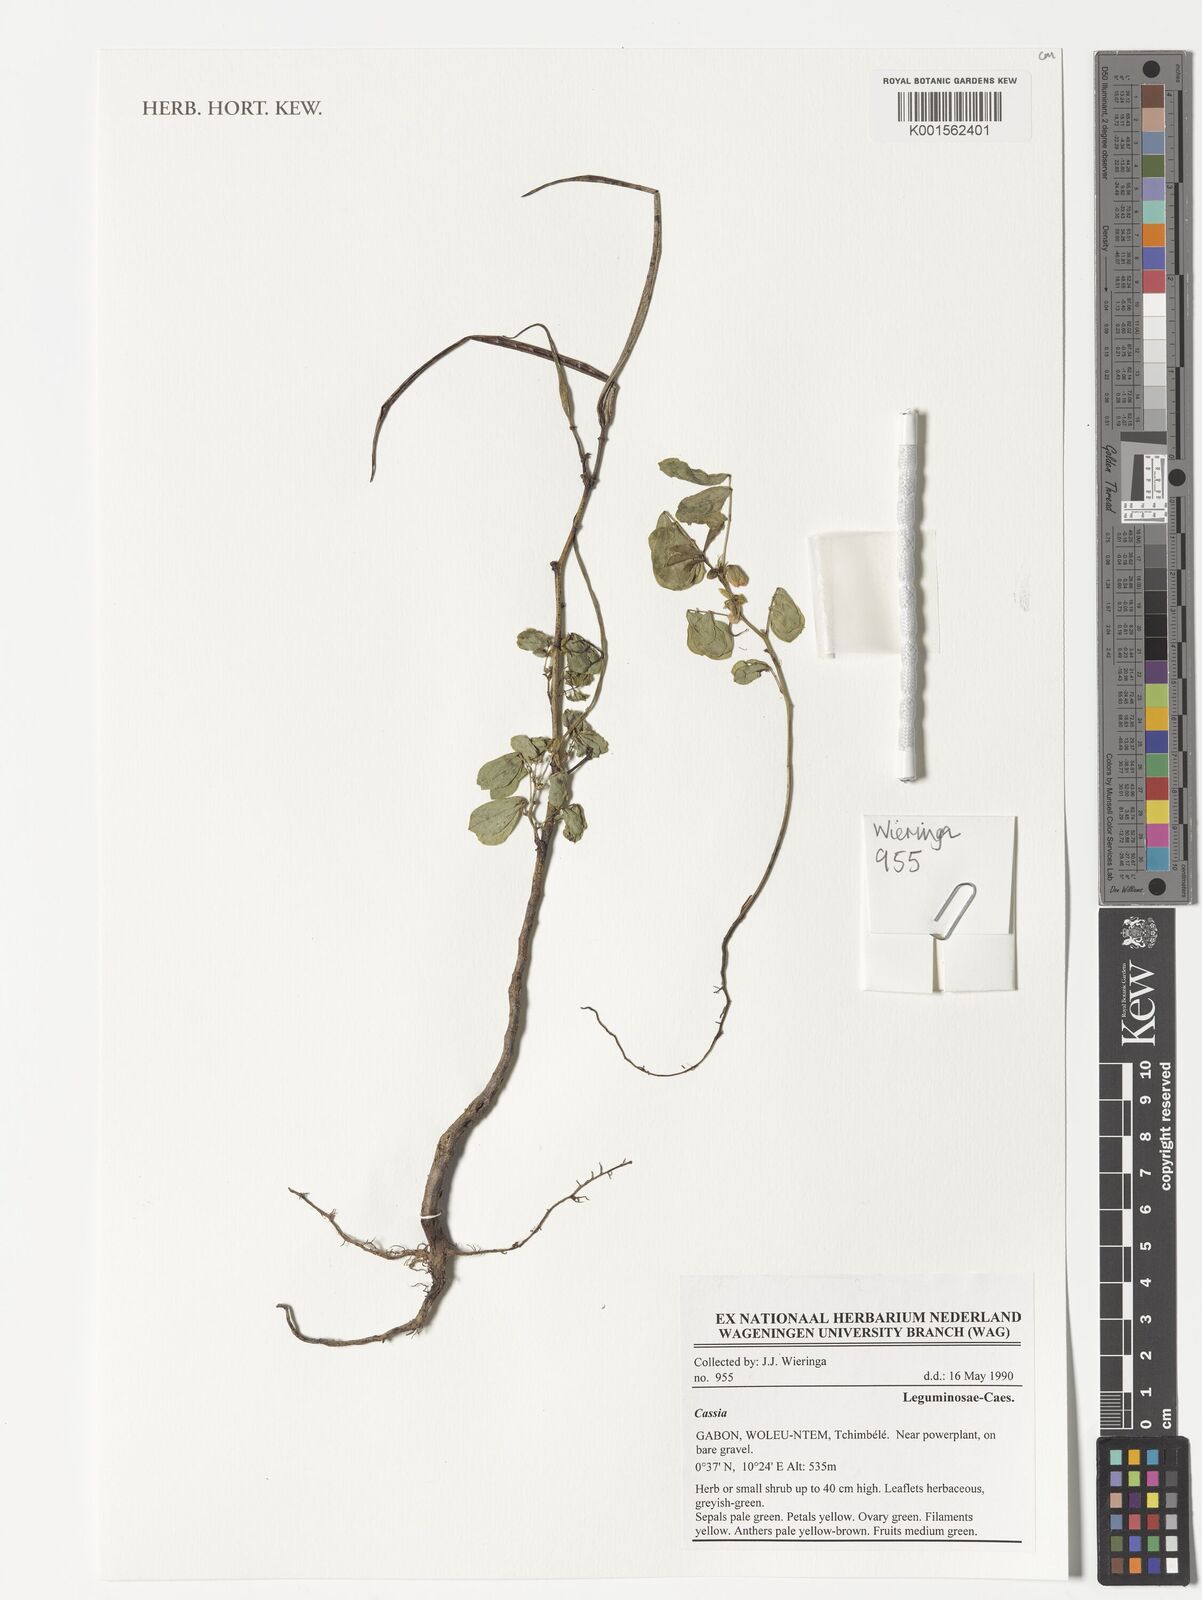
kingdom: Plantae
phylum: Tracheophyta
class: Magnoliopsida
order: Fabales
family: Fabaceae
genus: Cassia
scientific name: Cassia
